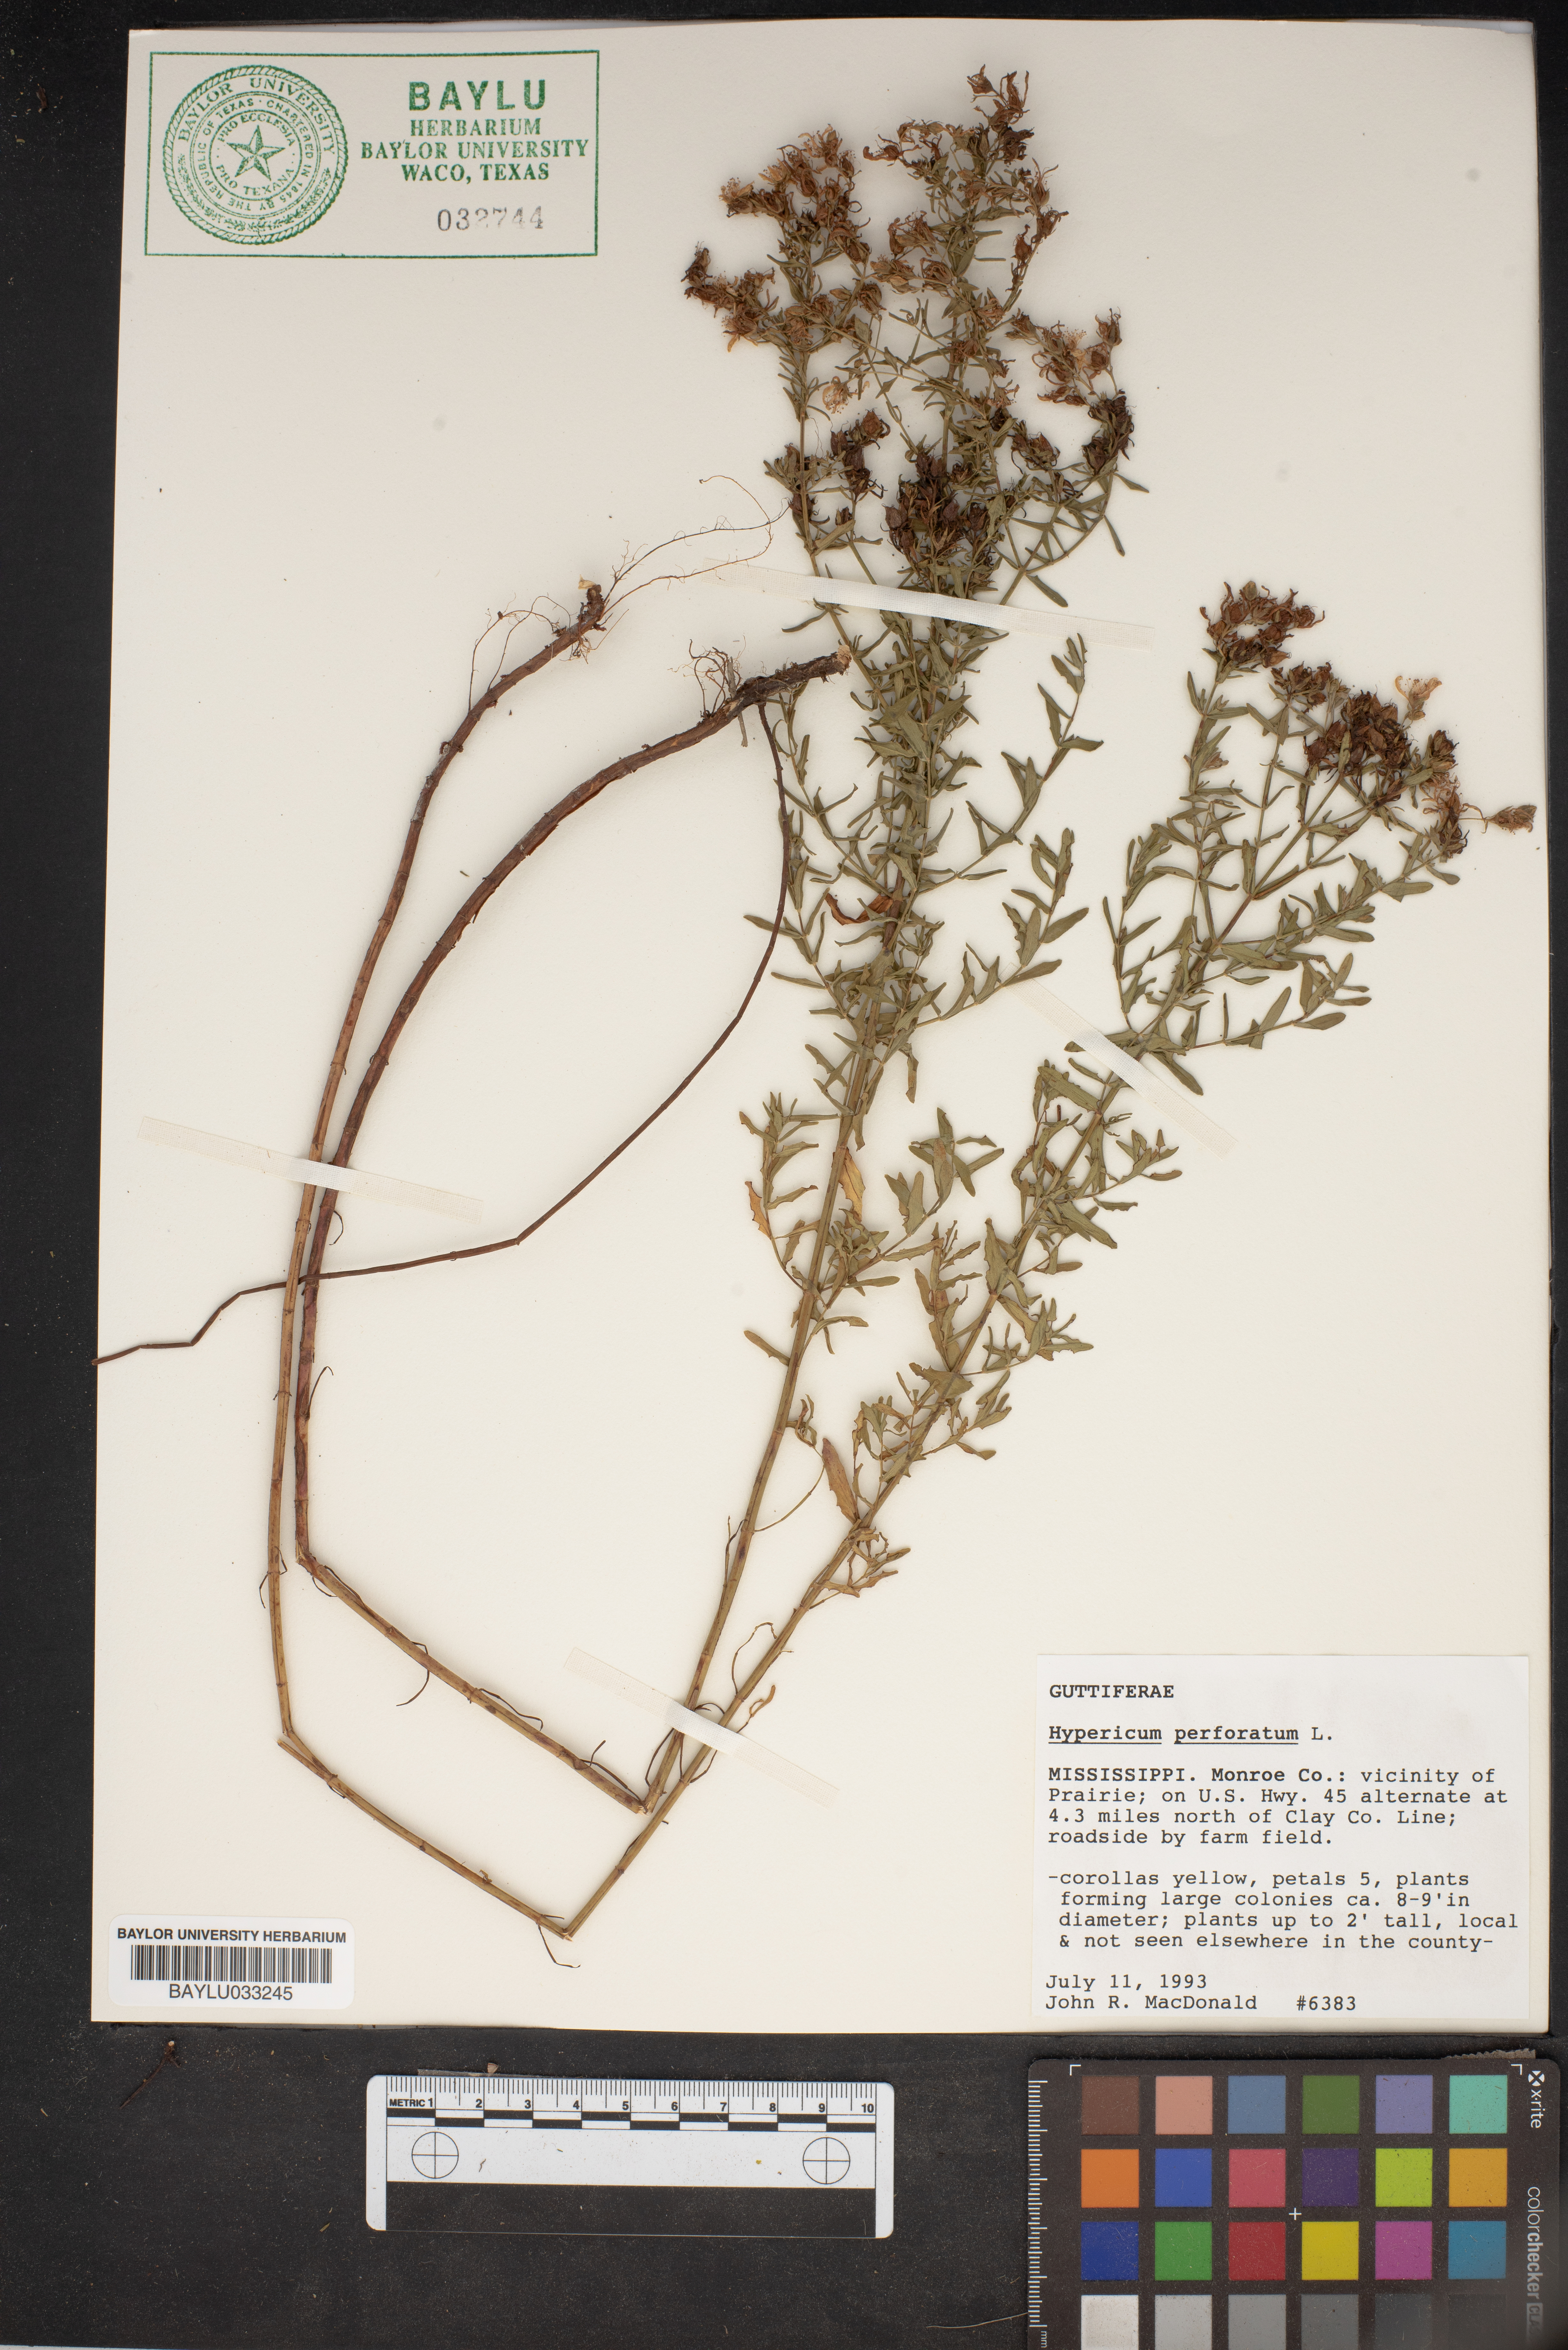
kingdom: Plantae
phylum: Tracheophyta
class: Magnoliopsida
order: Malpighiales
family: Hypericaceae
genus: Hypericum
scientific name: Hypericum perforatum
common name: Common st. johnswort
